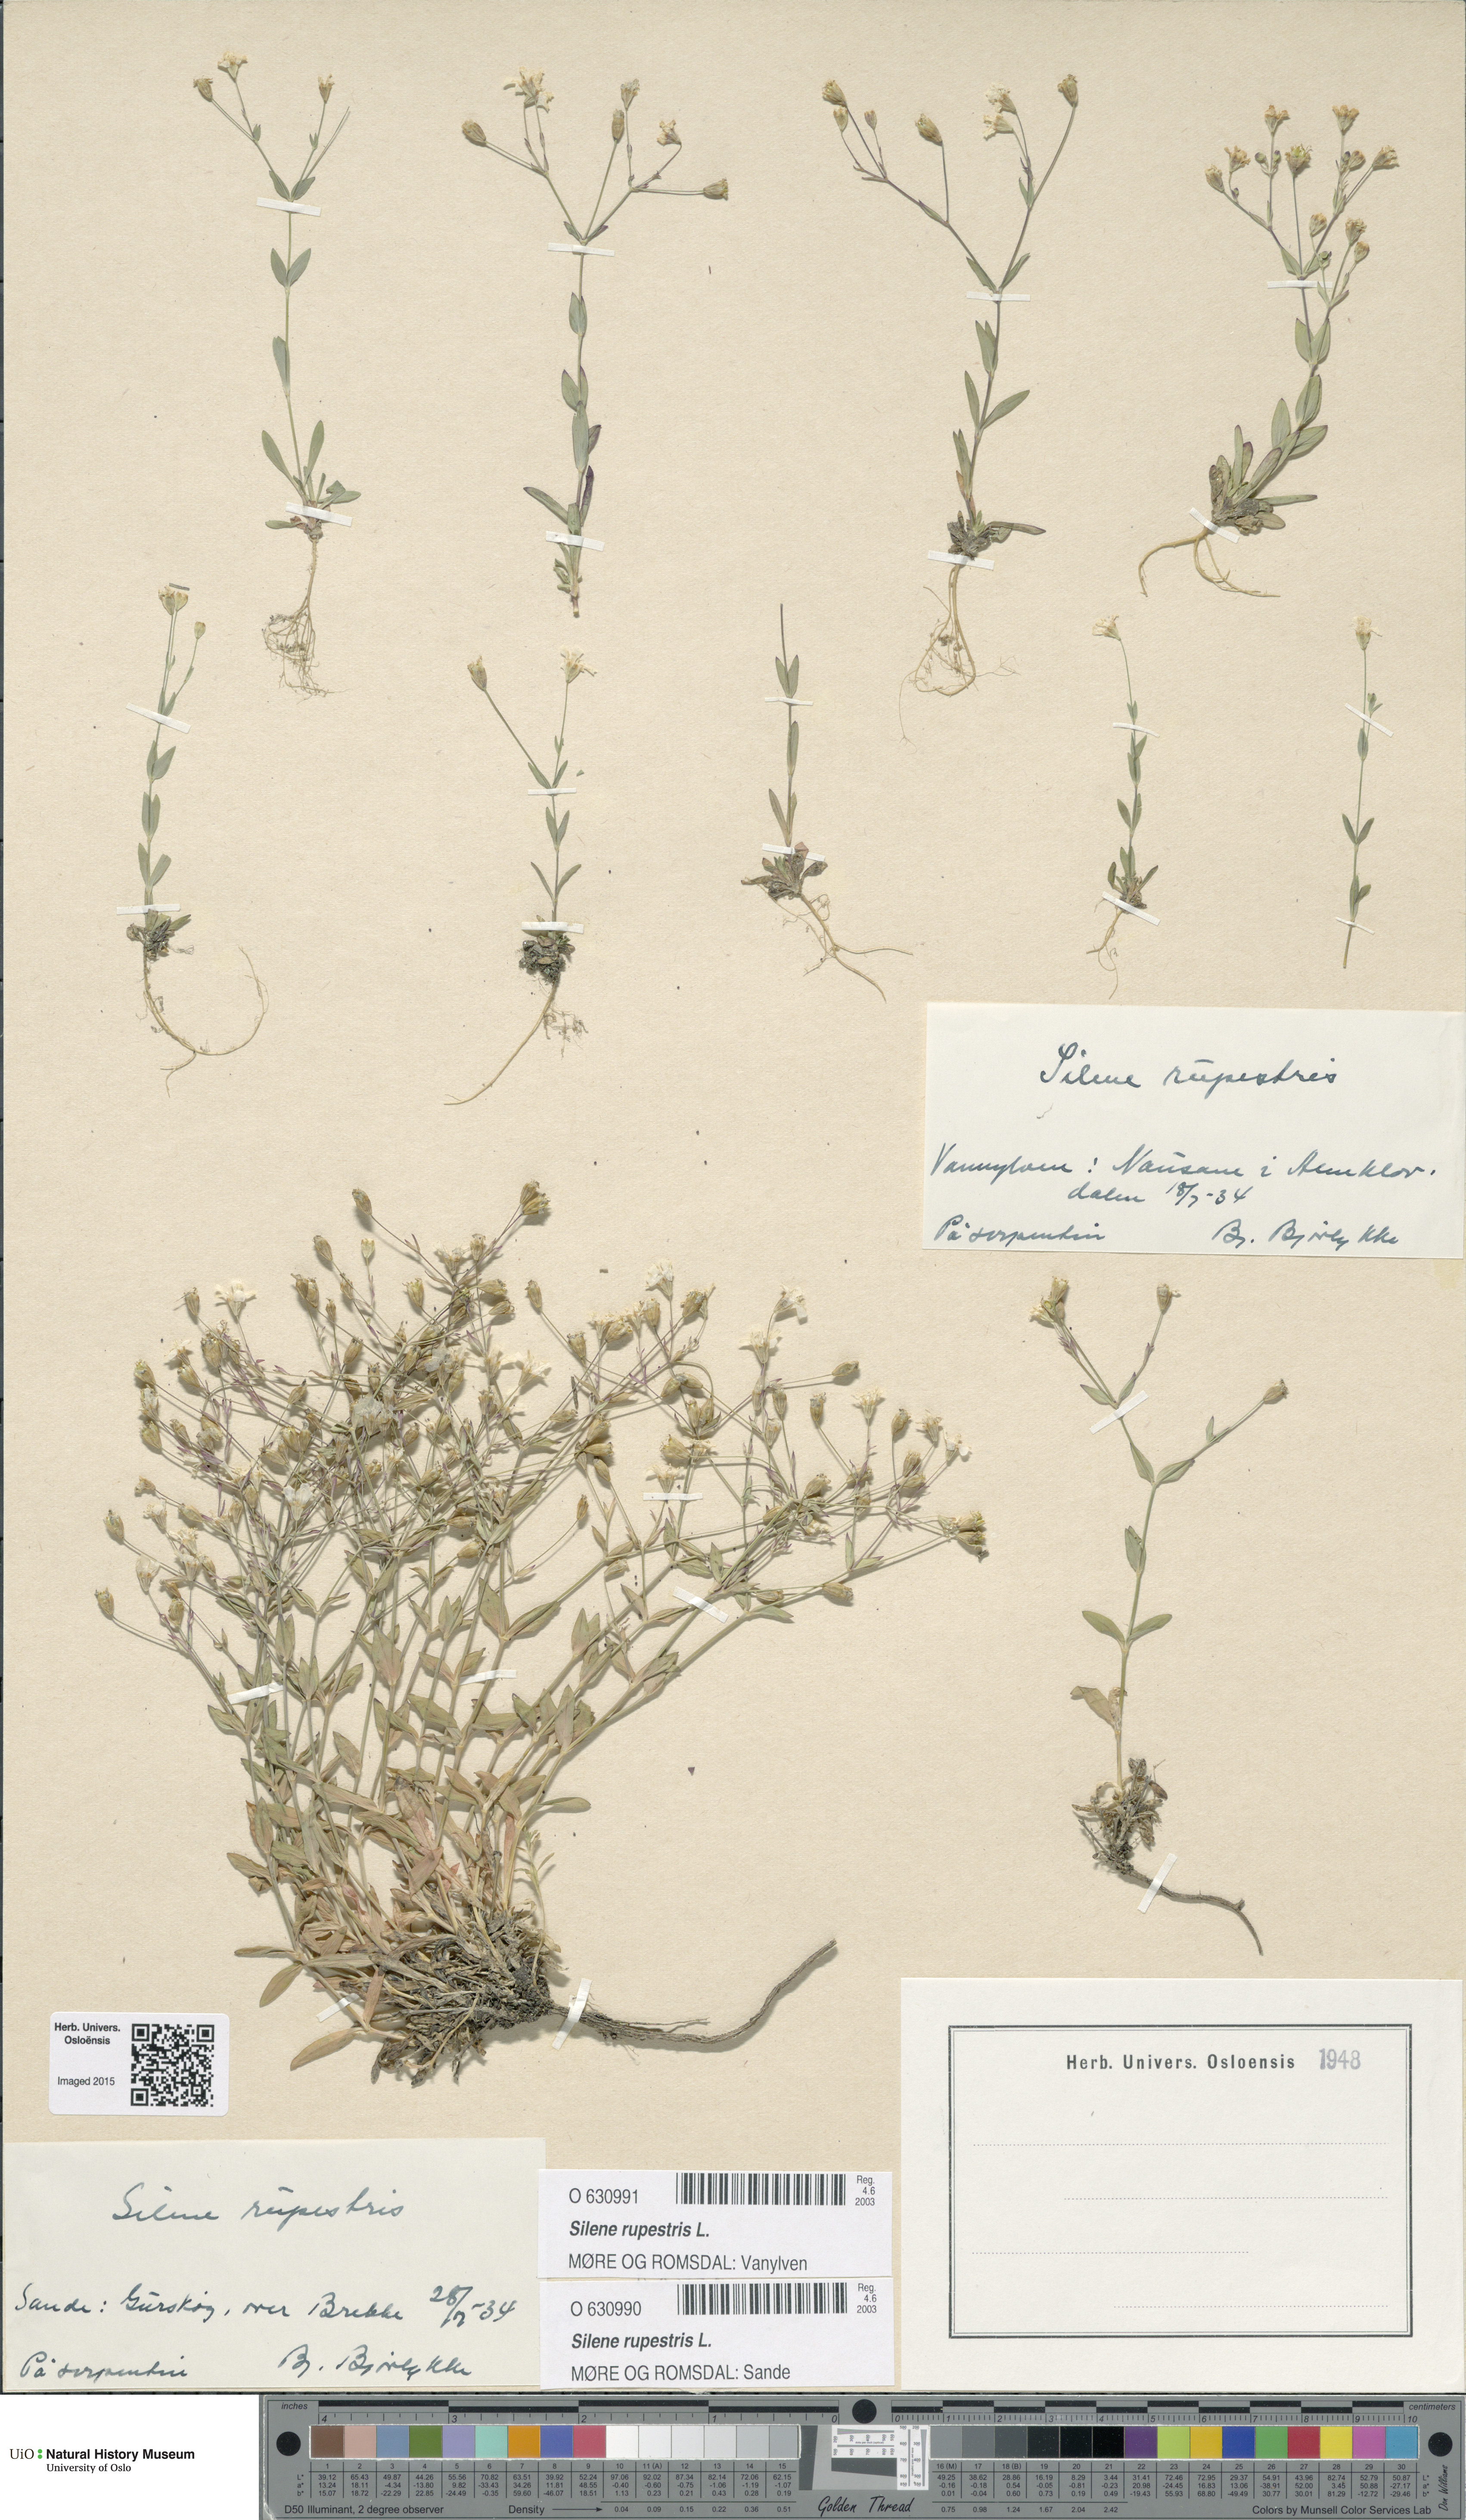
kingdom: Plantae
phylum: Tracheophyta
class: Magnoliopsida
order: Caryophyllales
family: Caryophyllaceae
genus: Atocion
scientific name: Atocion rupestre
